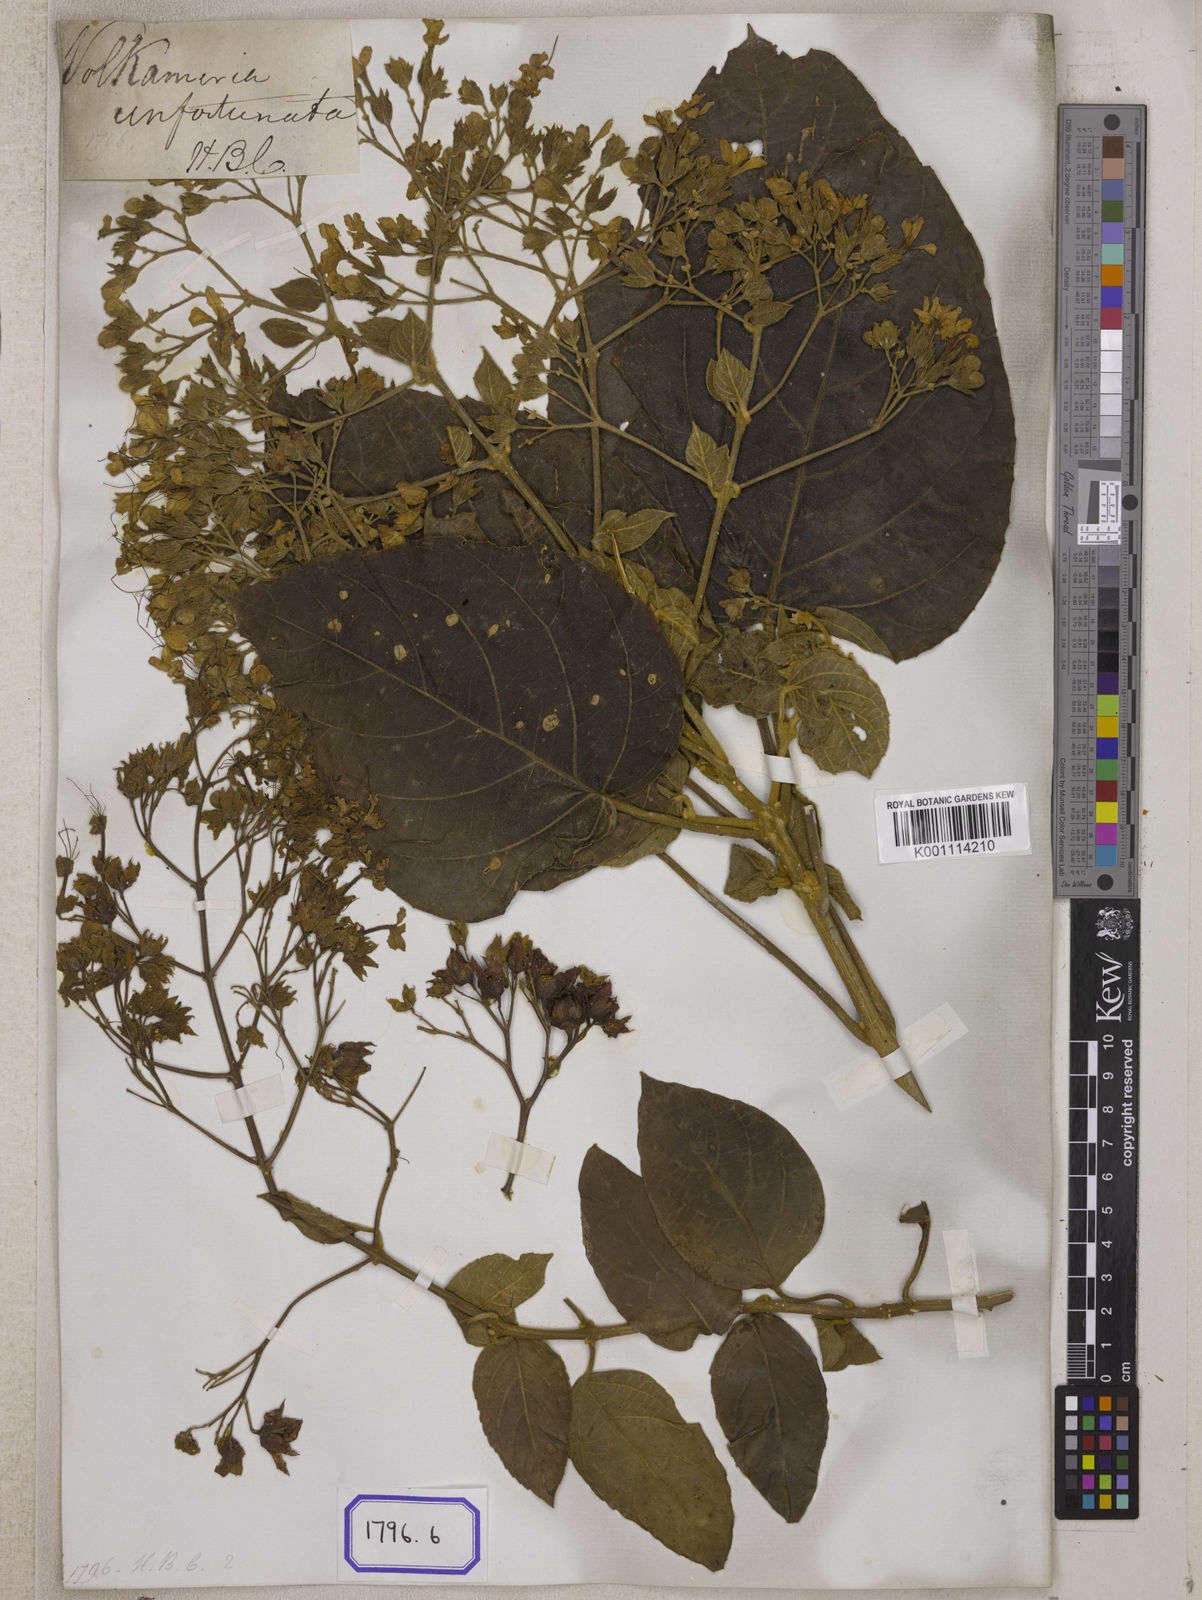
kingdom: Plantae
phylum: Tracheophyta
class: Magnoliopsida
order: Lamiales
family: Lamiaceae
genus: Clerodendrum
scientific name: Clerodendrum
